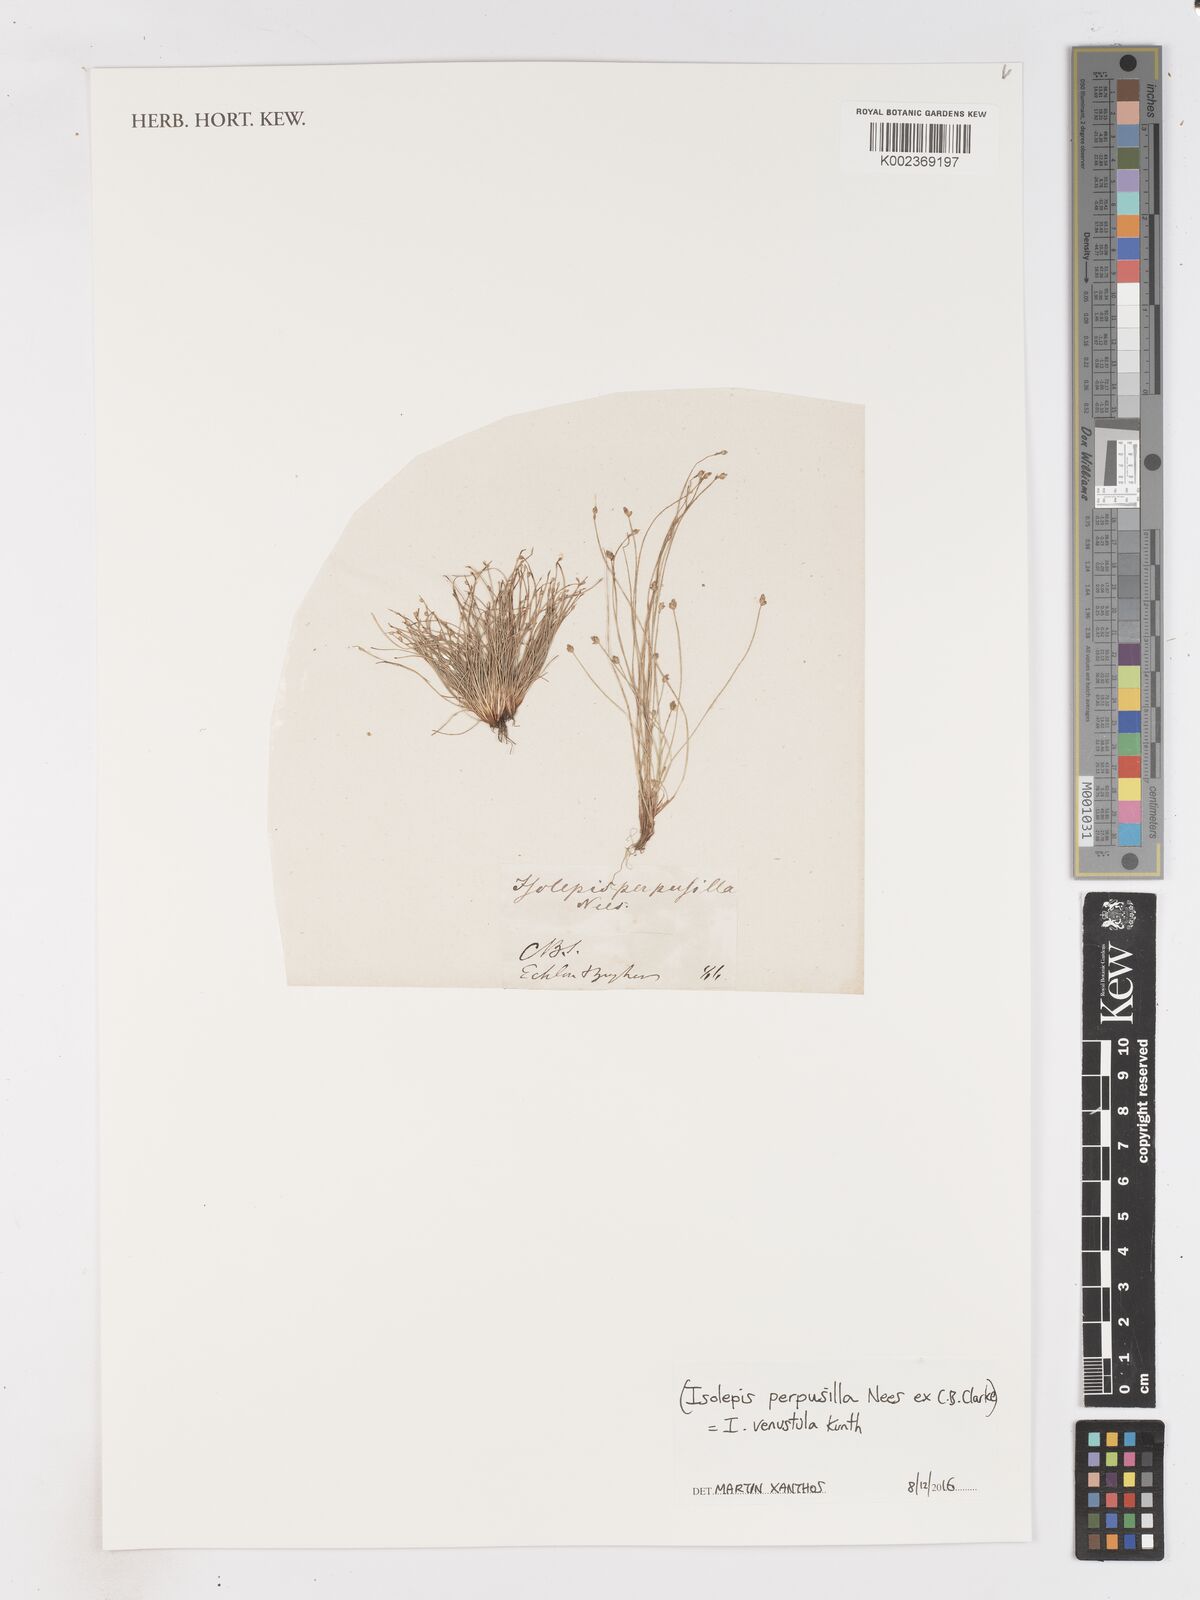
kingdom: Plantae
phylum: Tracheophyta
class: Liliopsida
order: Poales
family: Cyperaceae
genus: Isolepis
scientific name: Isolepis venustula
